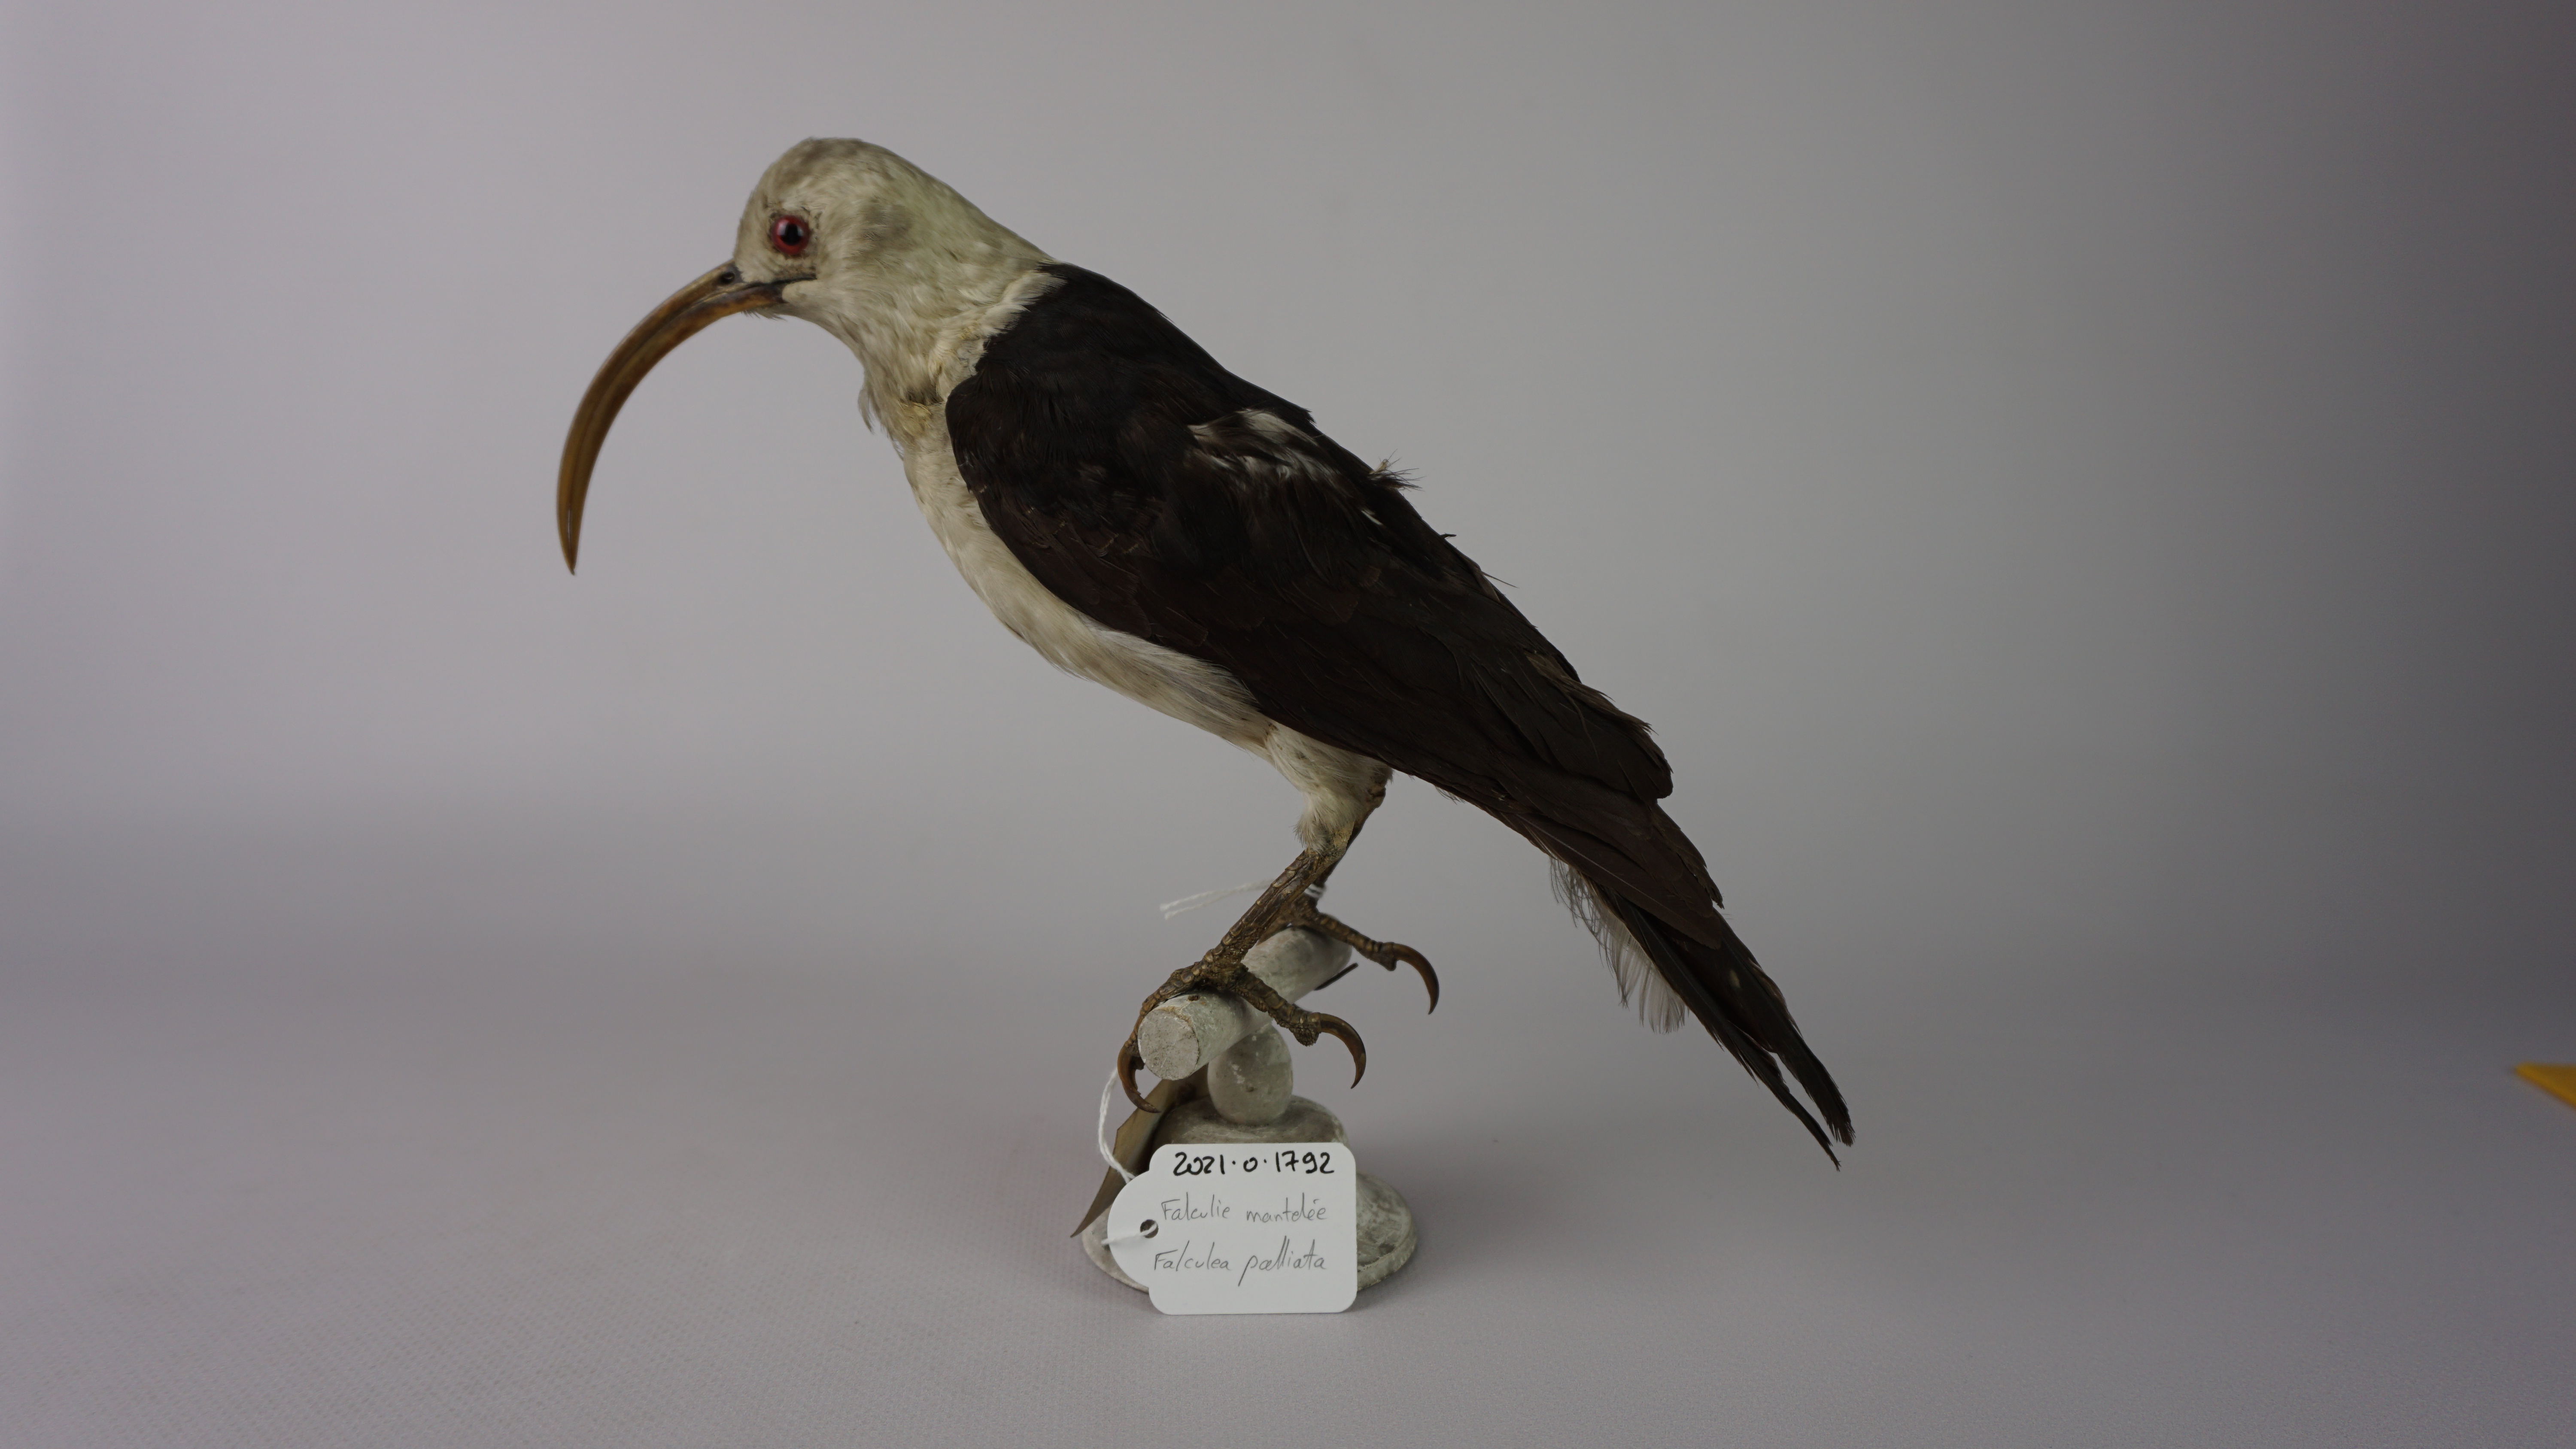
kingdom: Animalia
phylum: Chordata
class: Aves
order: Passeriformes
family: Vangidae
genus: Falculea
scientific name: Falculea palliata
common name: Sickle-billed vanga
